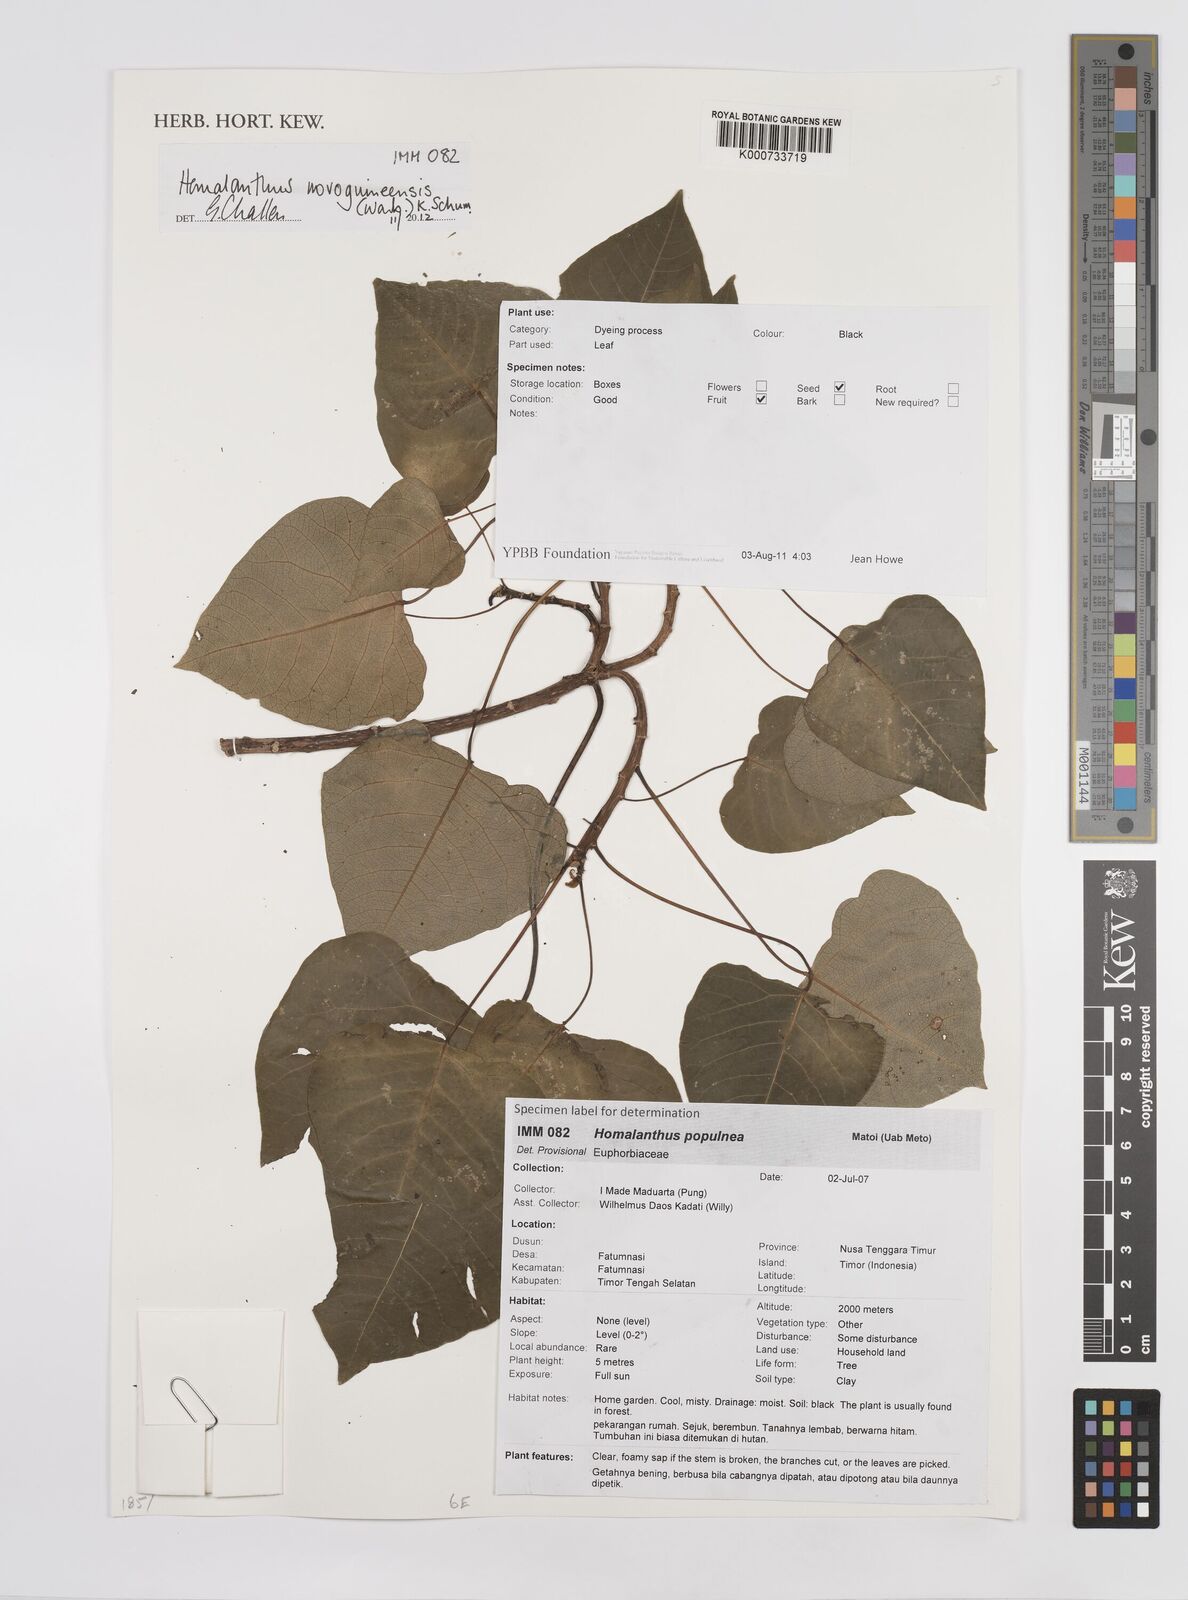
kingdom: Plantae
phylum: Tracheophyta
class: Magnoliopsida
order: Malpighiales
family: Euphorbiaceae
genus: Homalanthus
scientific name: Homalanthus novoguineensis
